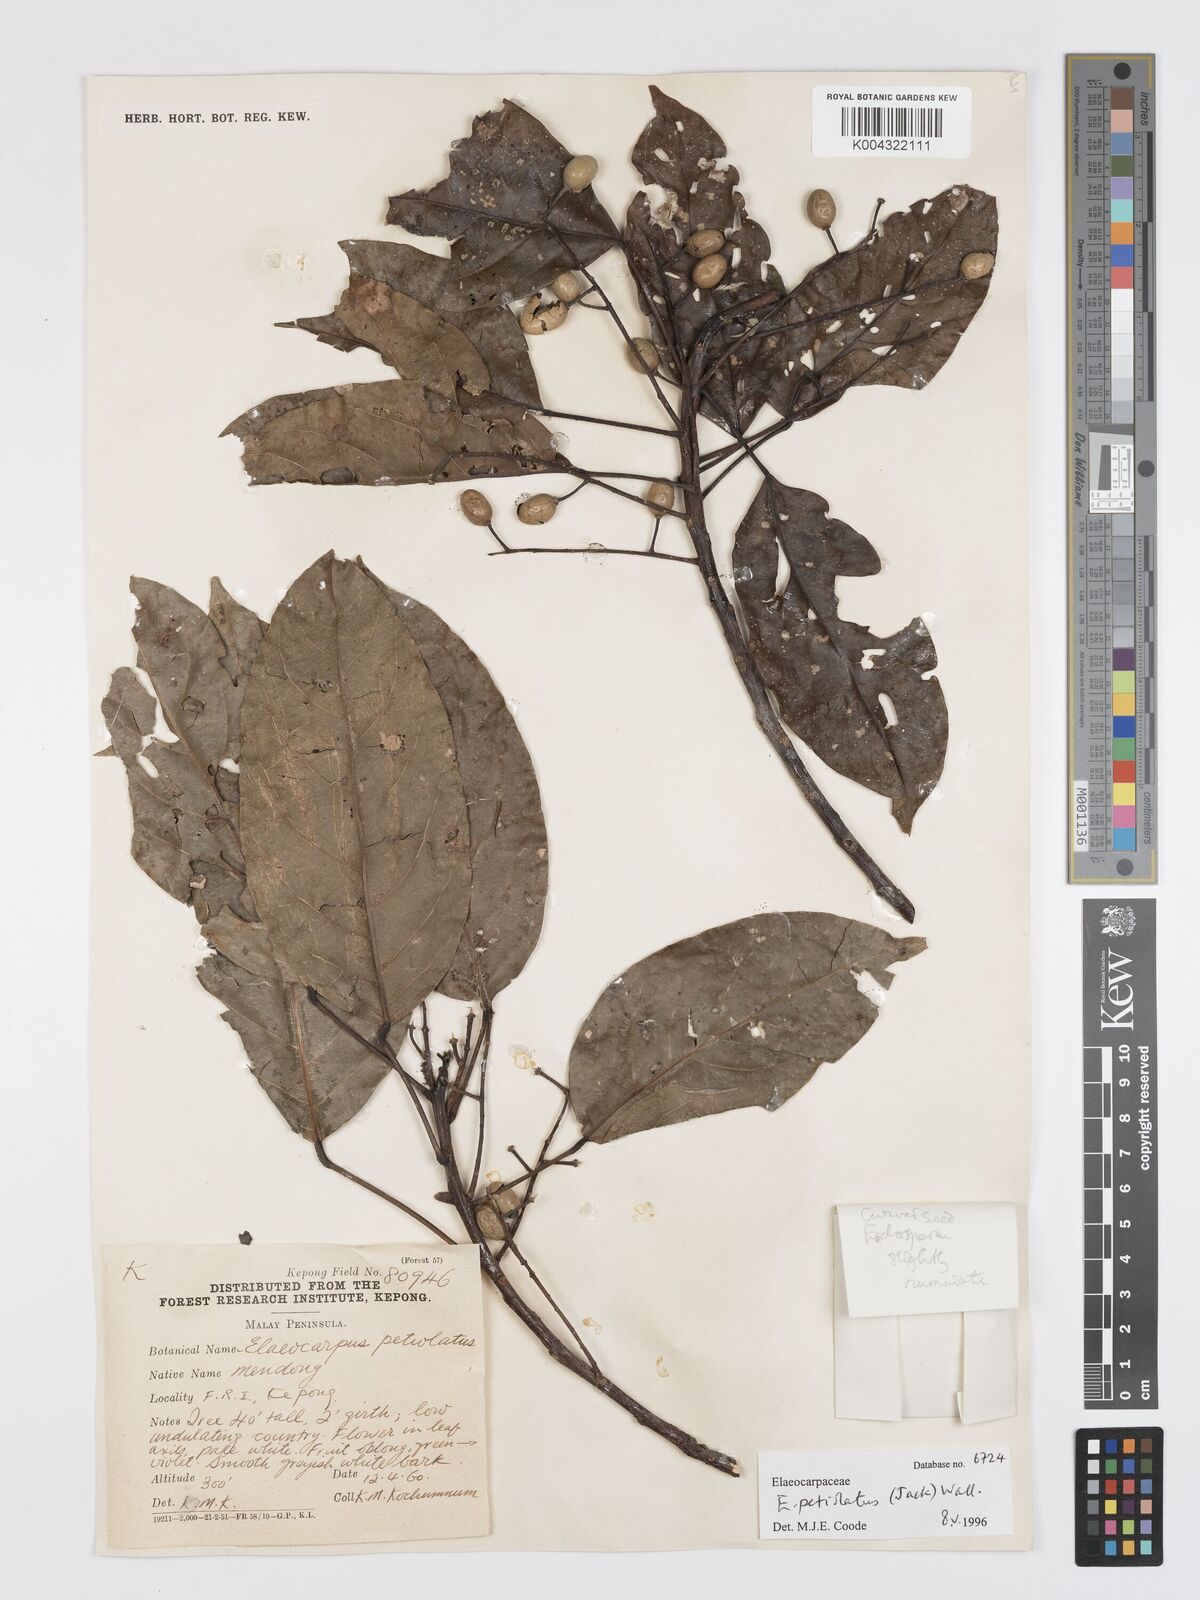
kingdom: Plantae
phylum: Tracheophyta
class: Magnoliopsida
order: Oxalidales
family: Elaeocarpaceae
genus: Elaeocarpus
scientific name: Elaeocarpus petiolatus
